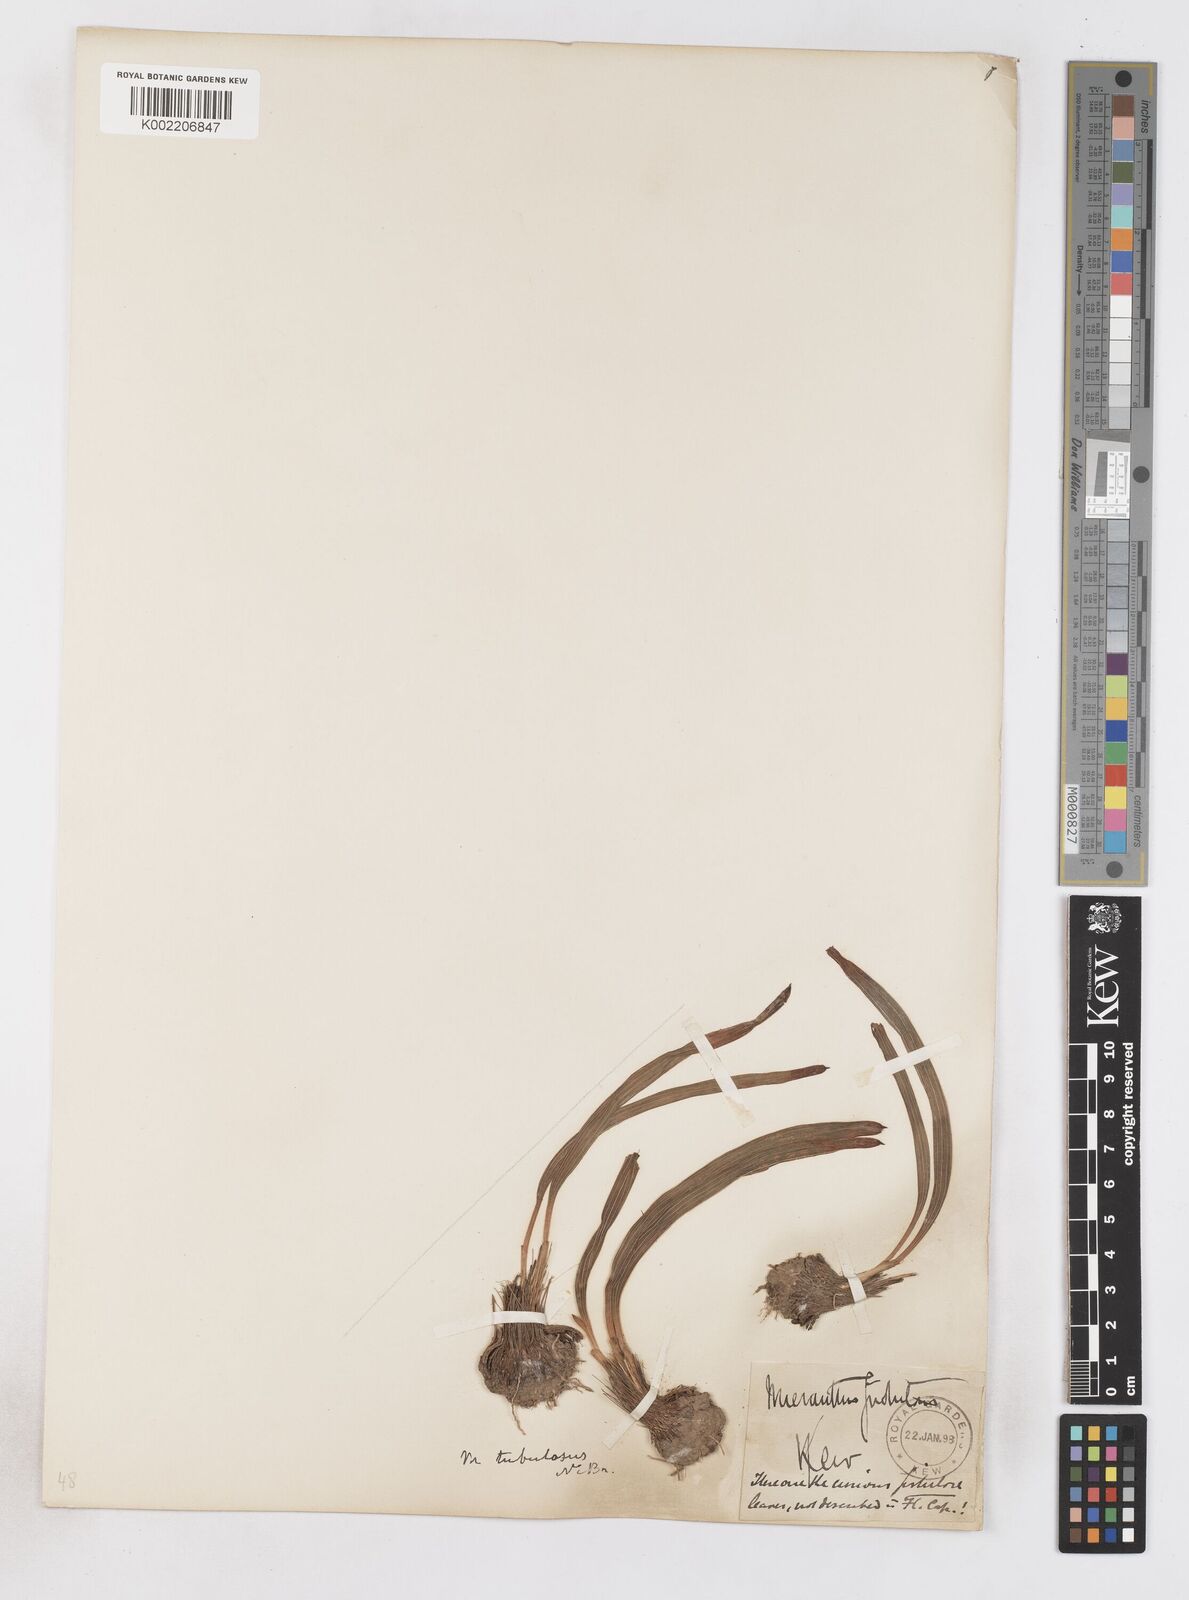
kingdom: Plantae
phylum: Tracheophyta
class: Liliopsida
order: Asparagales
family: Iridaceae
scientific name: Iridaceae
